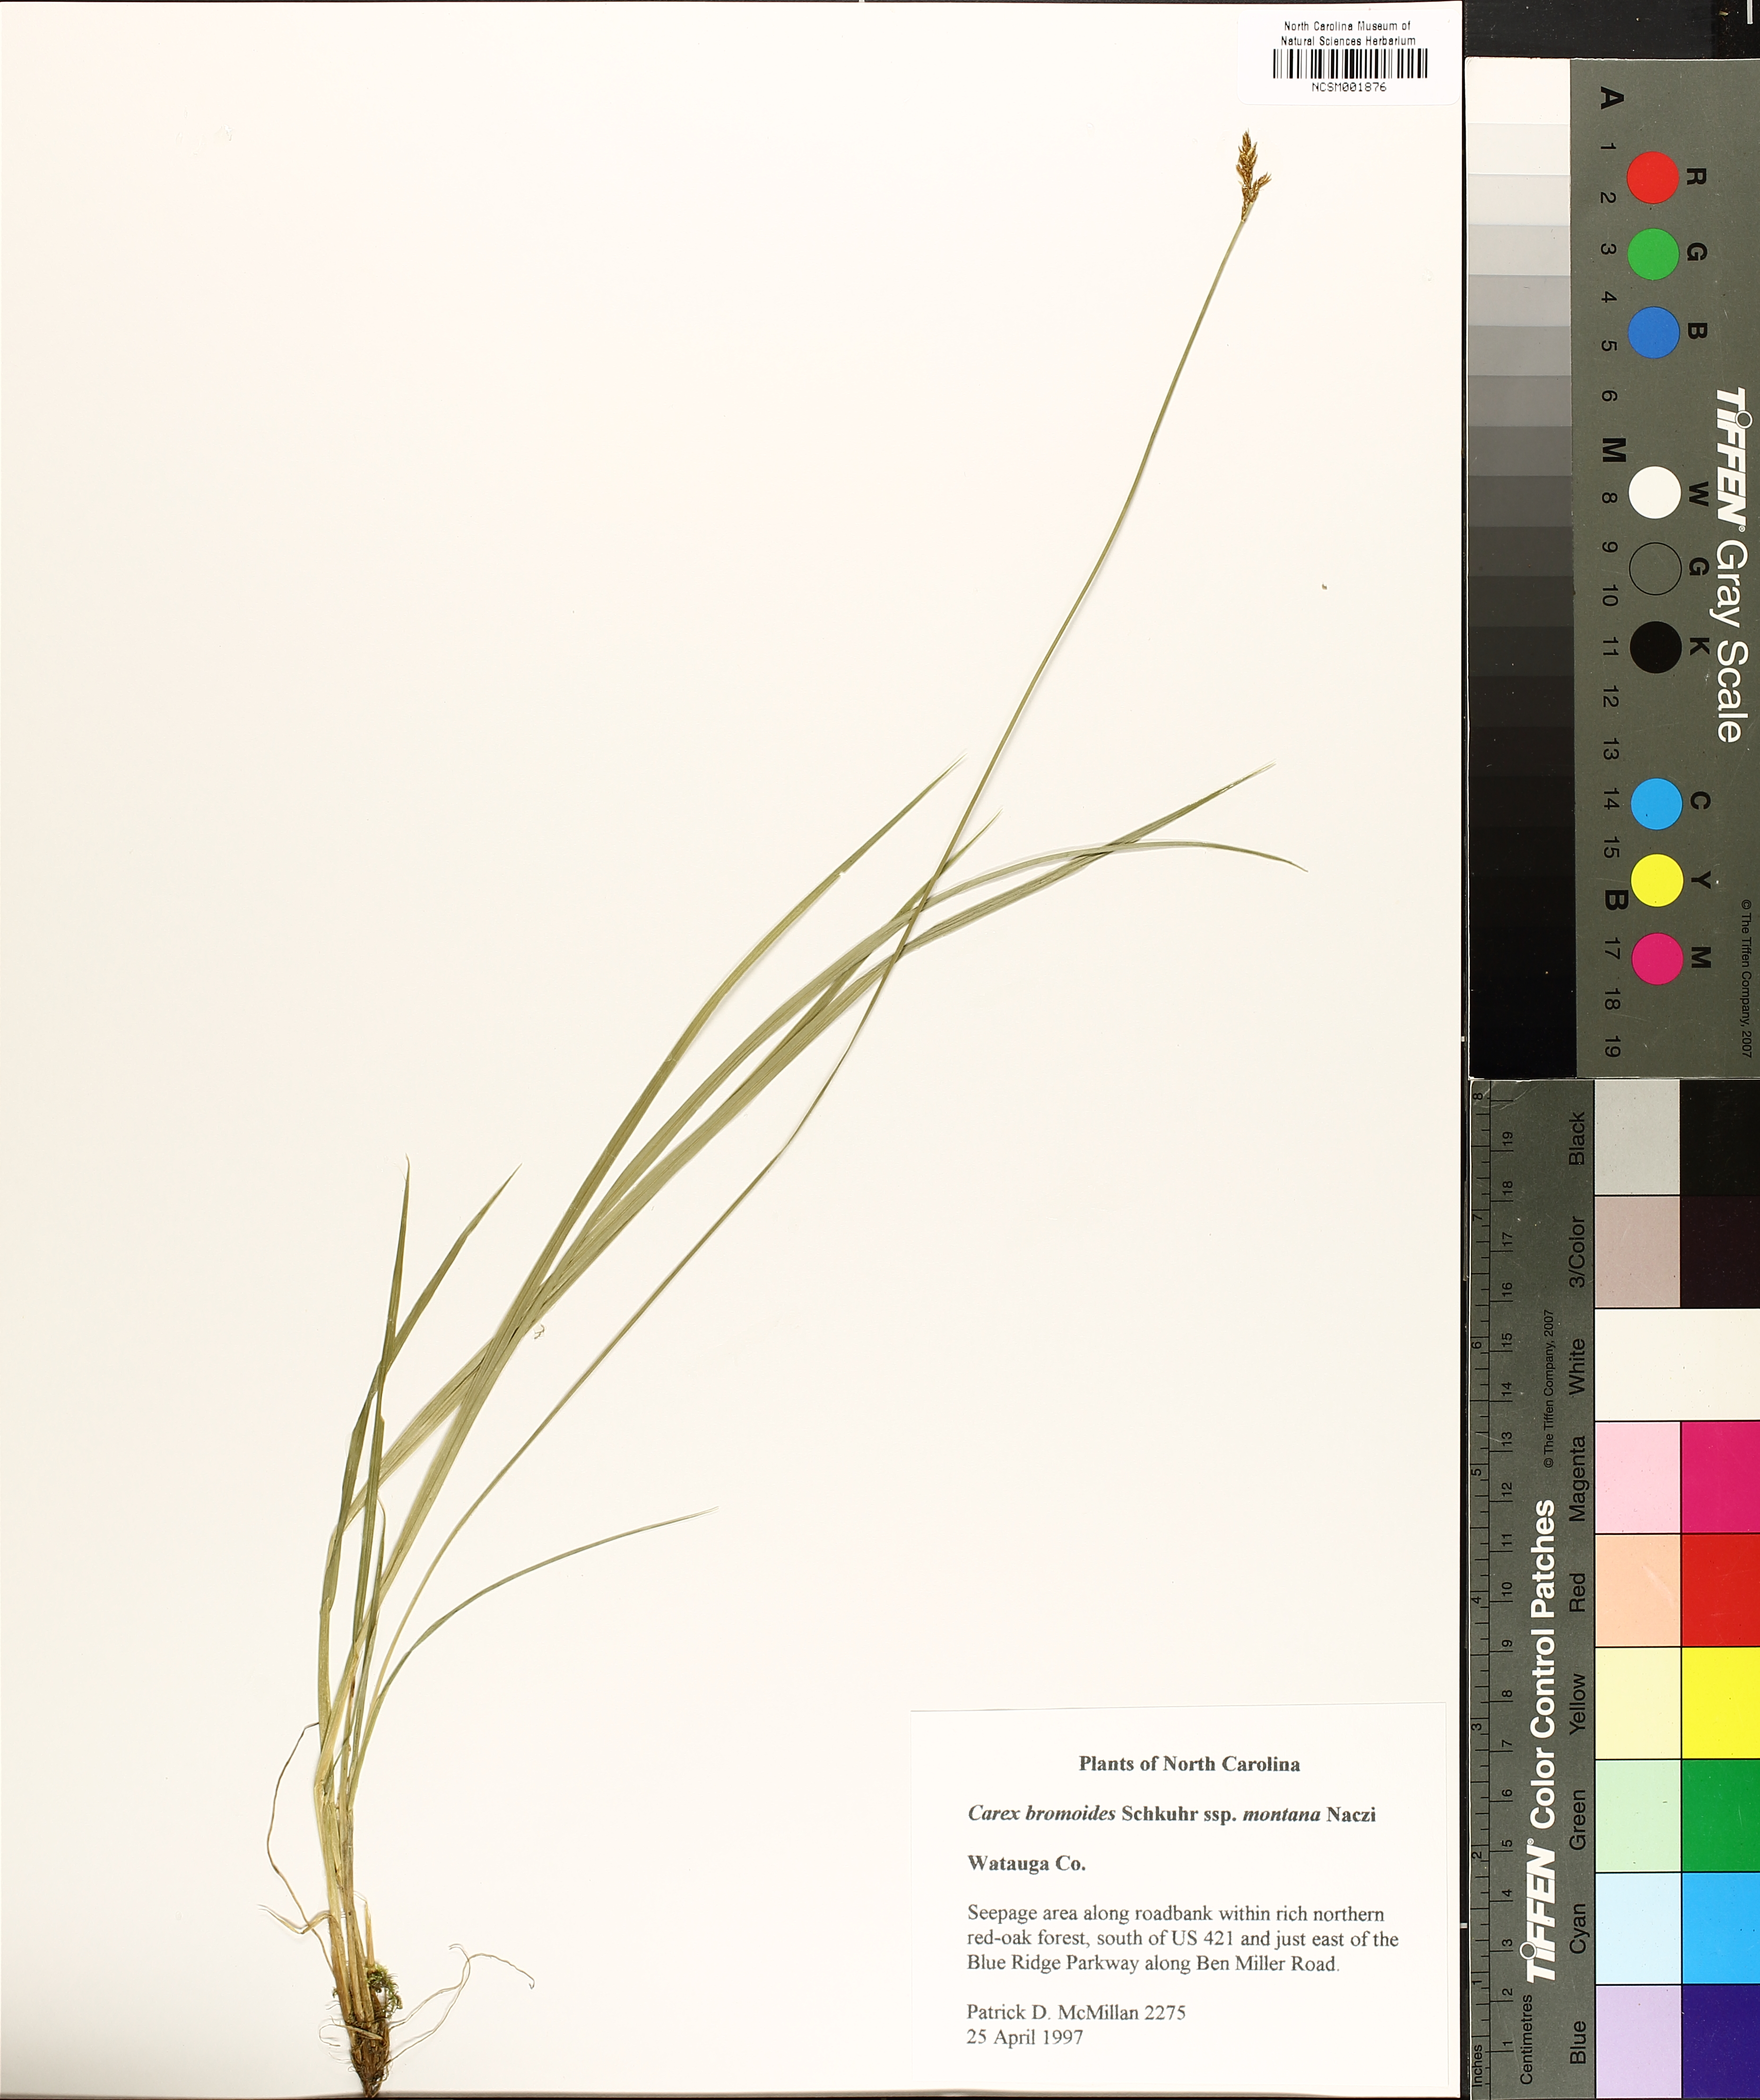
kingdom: Plantae
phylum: Tracheophyta
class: Liliopsida
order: Poales
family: Cyperaceae
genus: Carex
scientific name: Carex bromoides
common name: Brome hummock sedge
